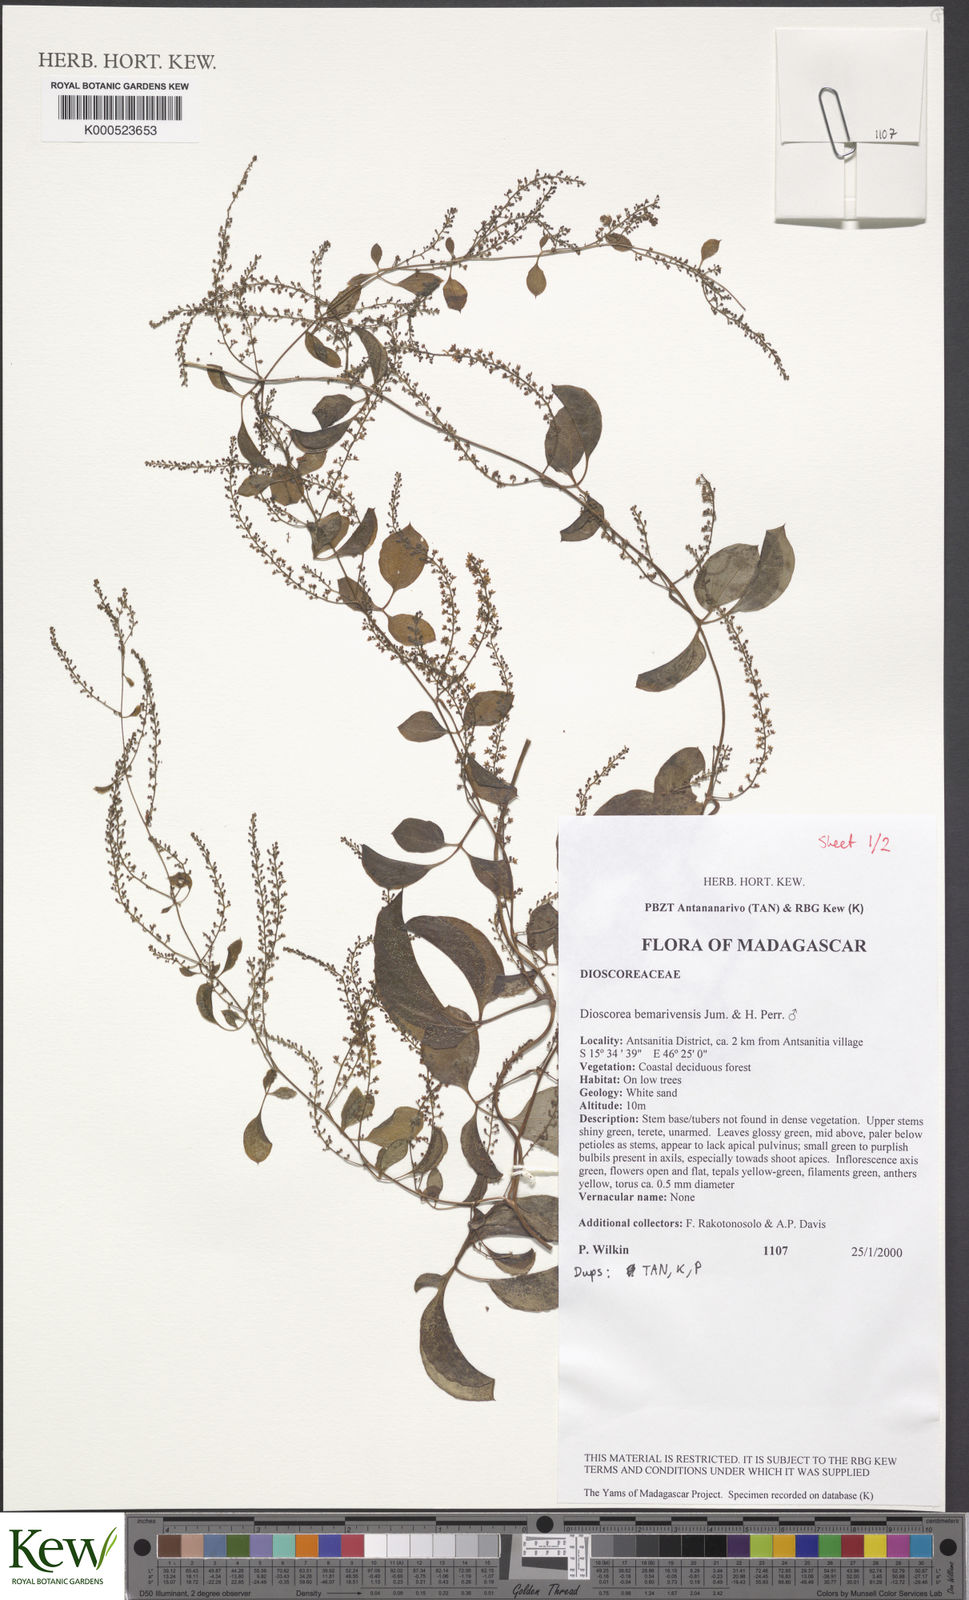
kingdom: Plantae
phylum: Tracheophyta
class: Liliopsida
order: Dioscoreales
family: Dioscoreaceae
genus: Dioscorea
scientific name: Dioscorea bemarivensis
